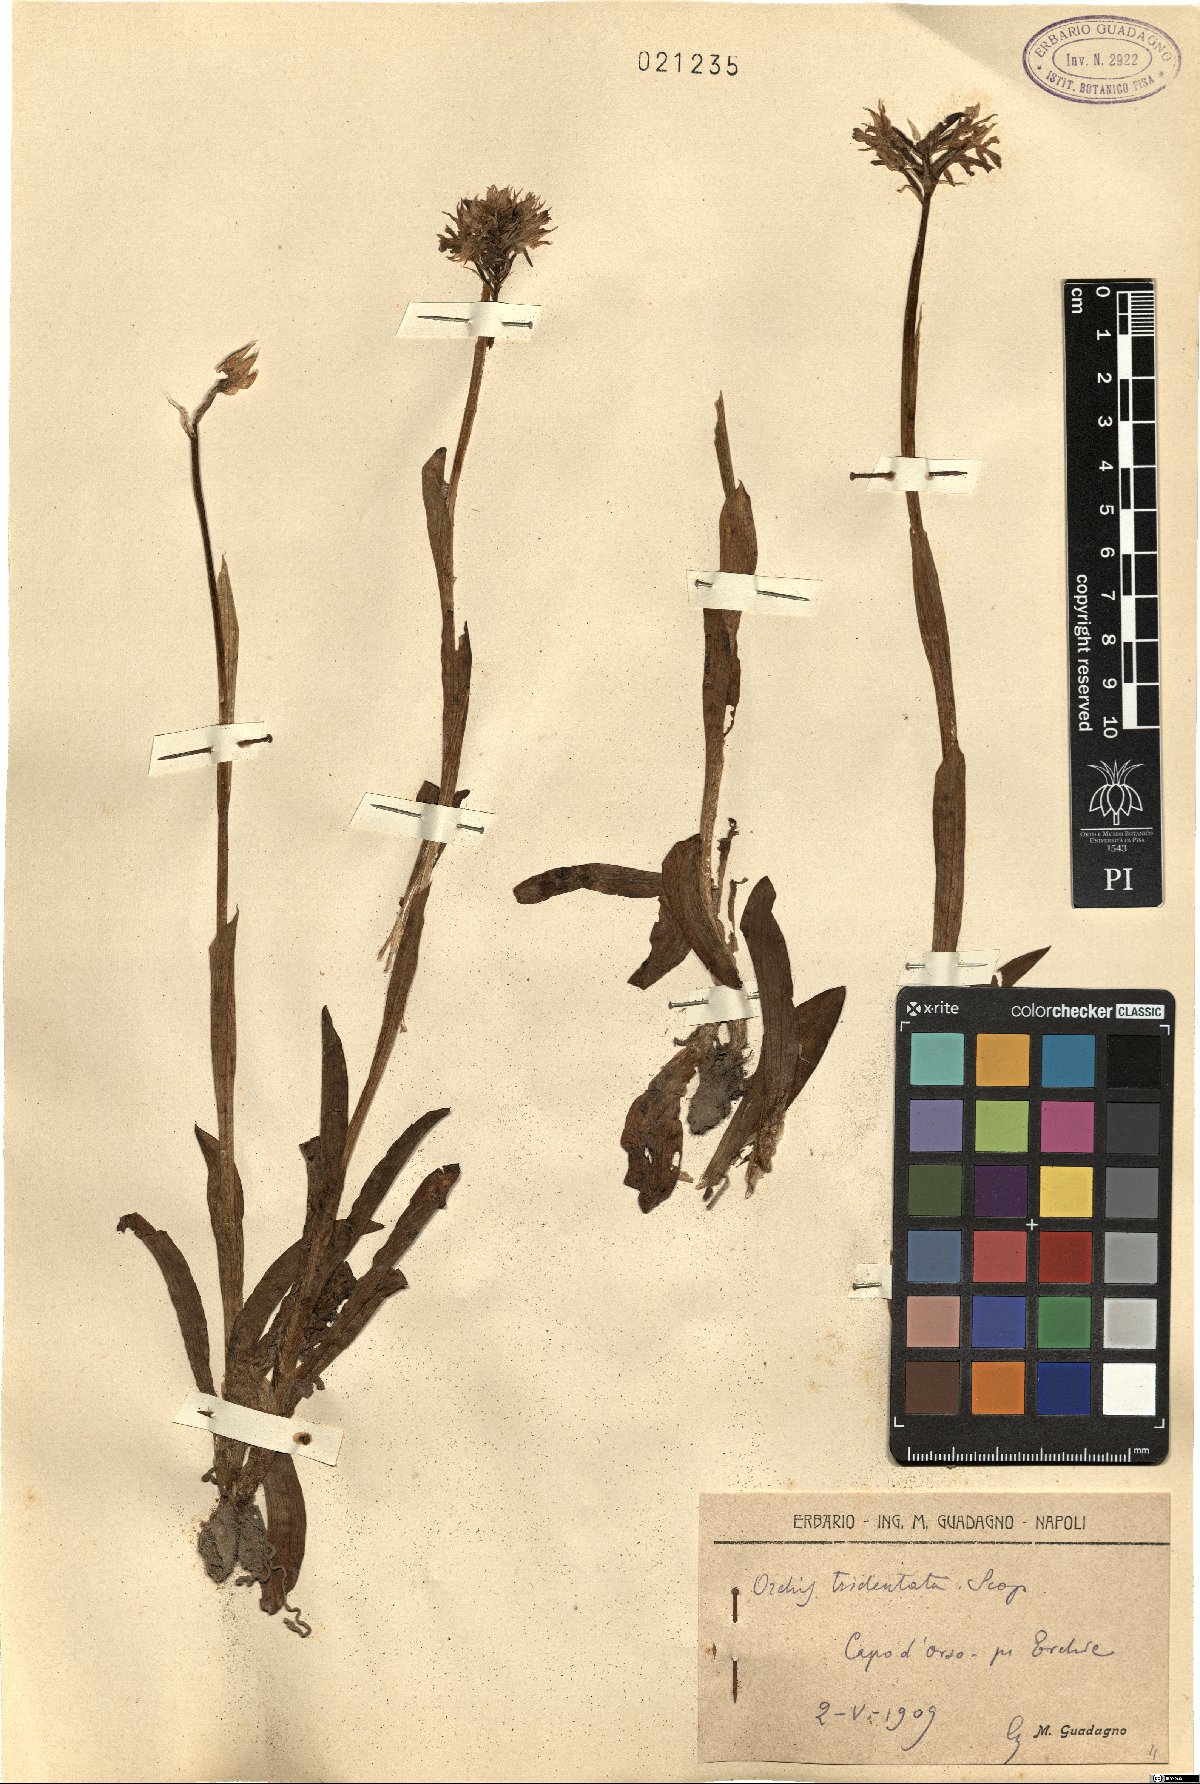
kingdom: Plantae
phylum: Tracheophyta
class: Liliopsida
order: Asparagales
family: Orchidaceae
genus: Neotinea
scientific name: Neotinea tridentata
